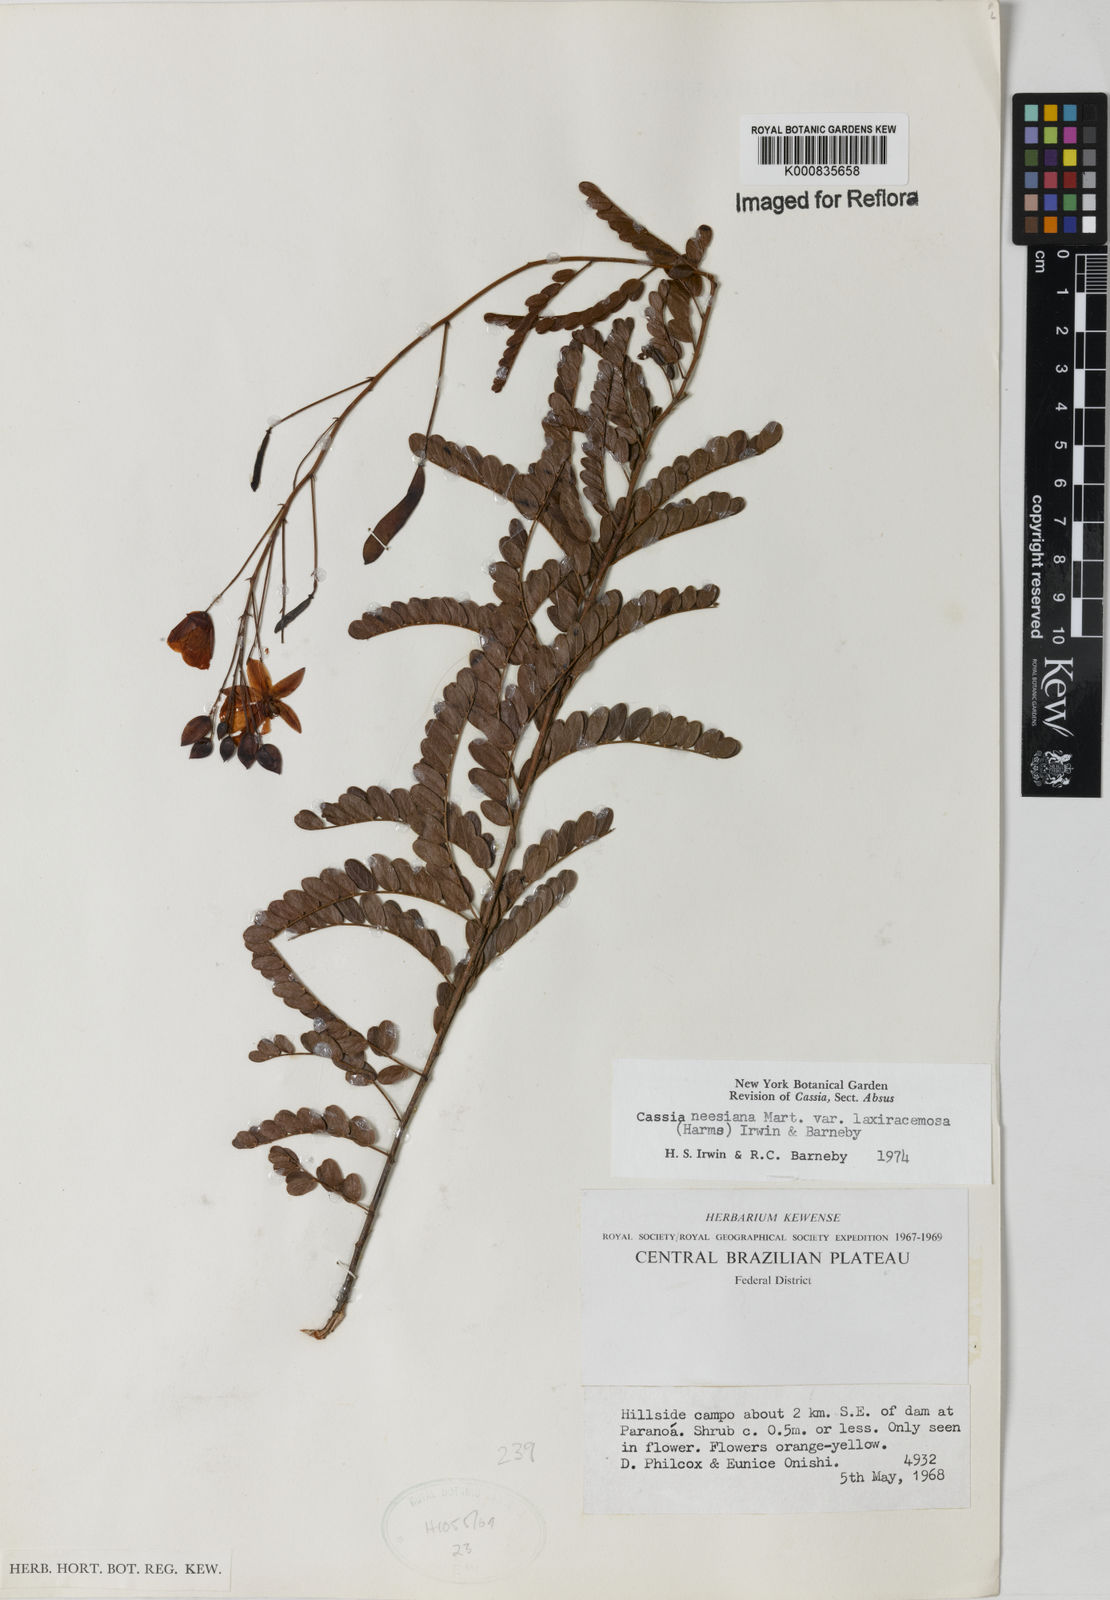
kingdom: Plantae
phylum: Tracheophyta
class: Magnoliopsida
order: Fabales
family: Fabaceae
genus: Chamaecrista
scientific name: Chamaecrista neesiana
